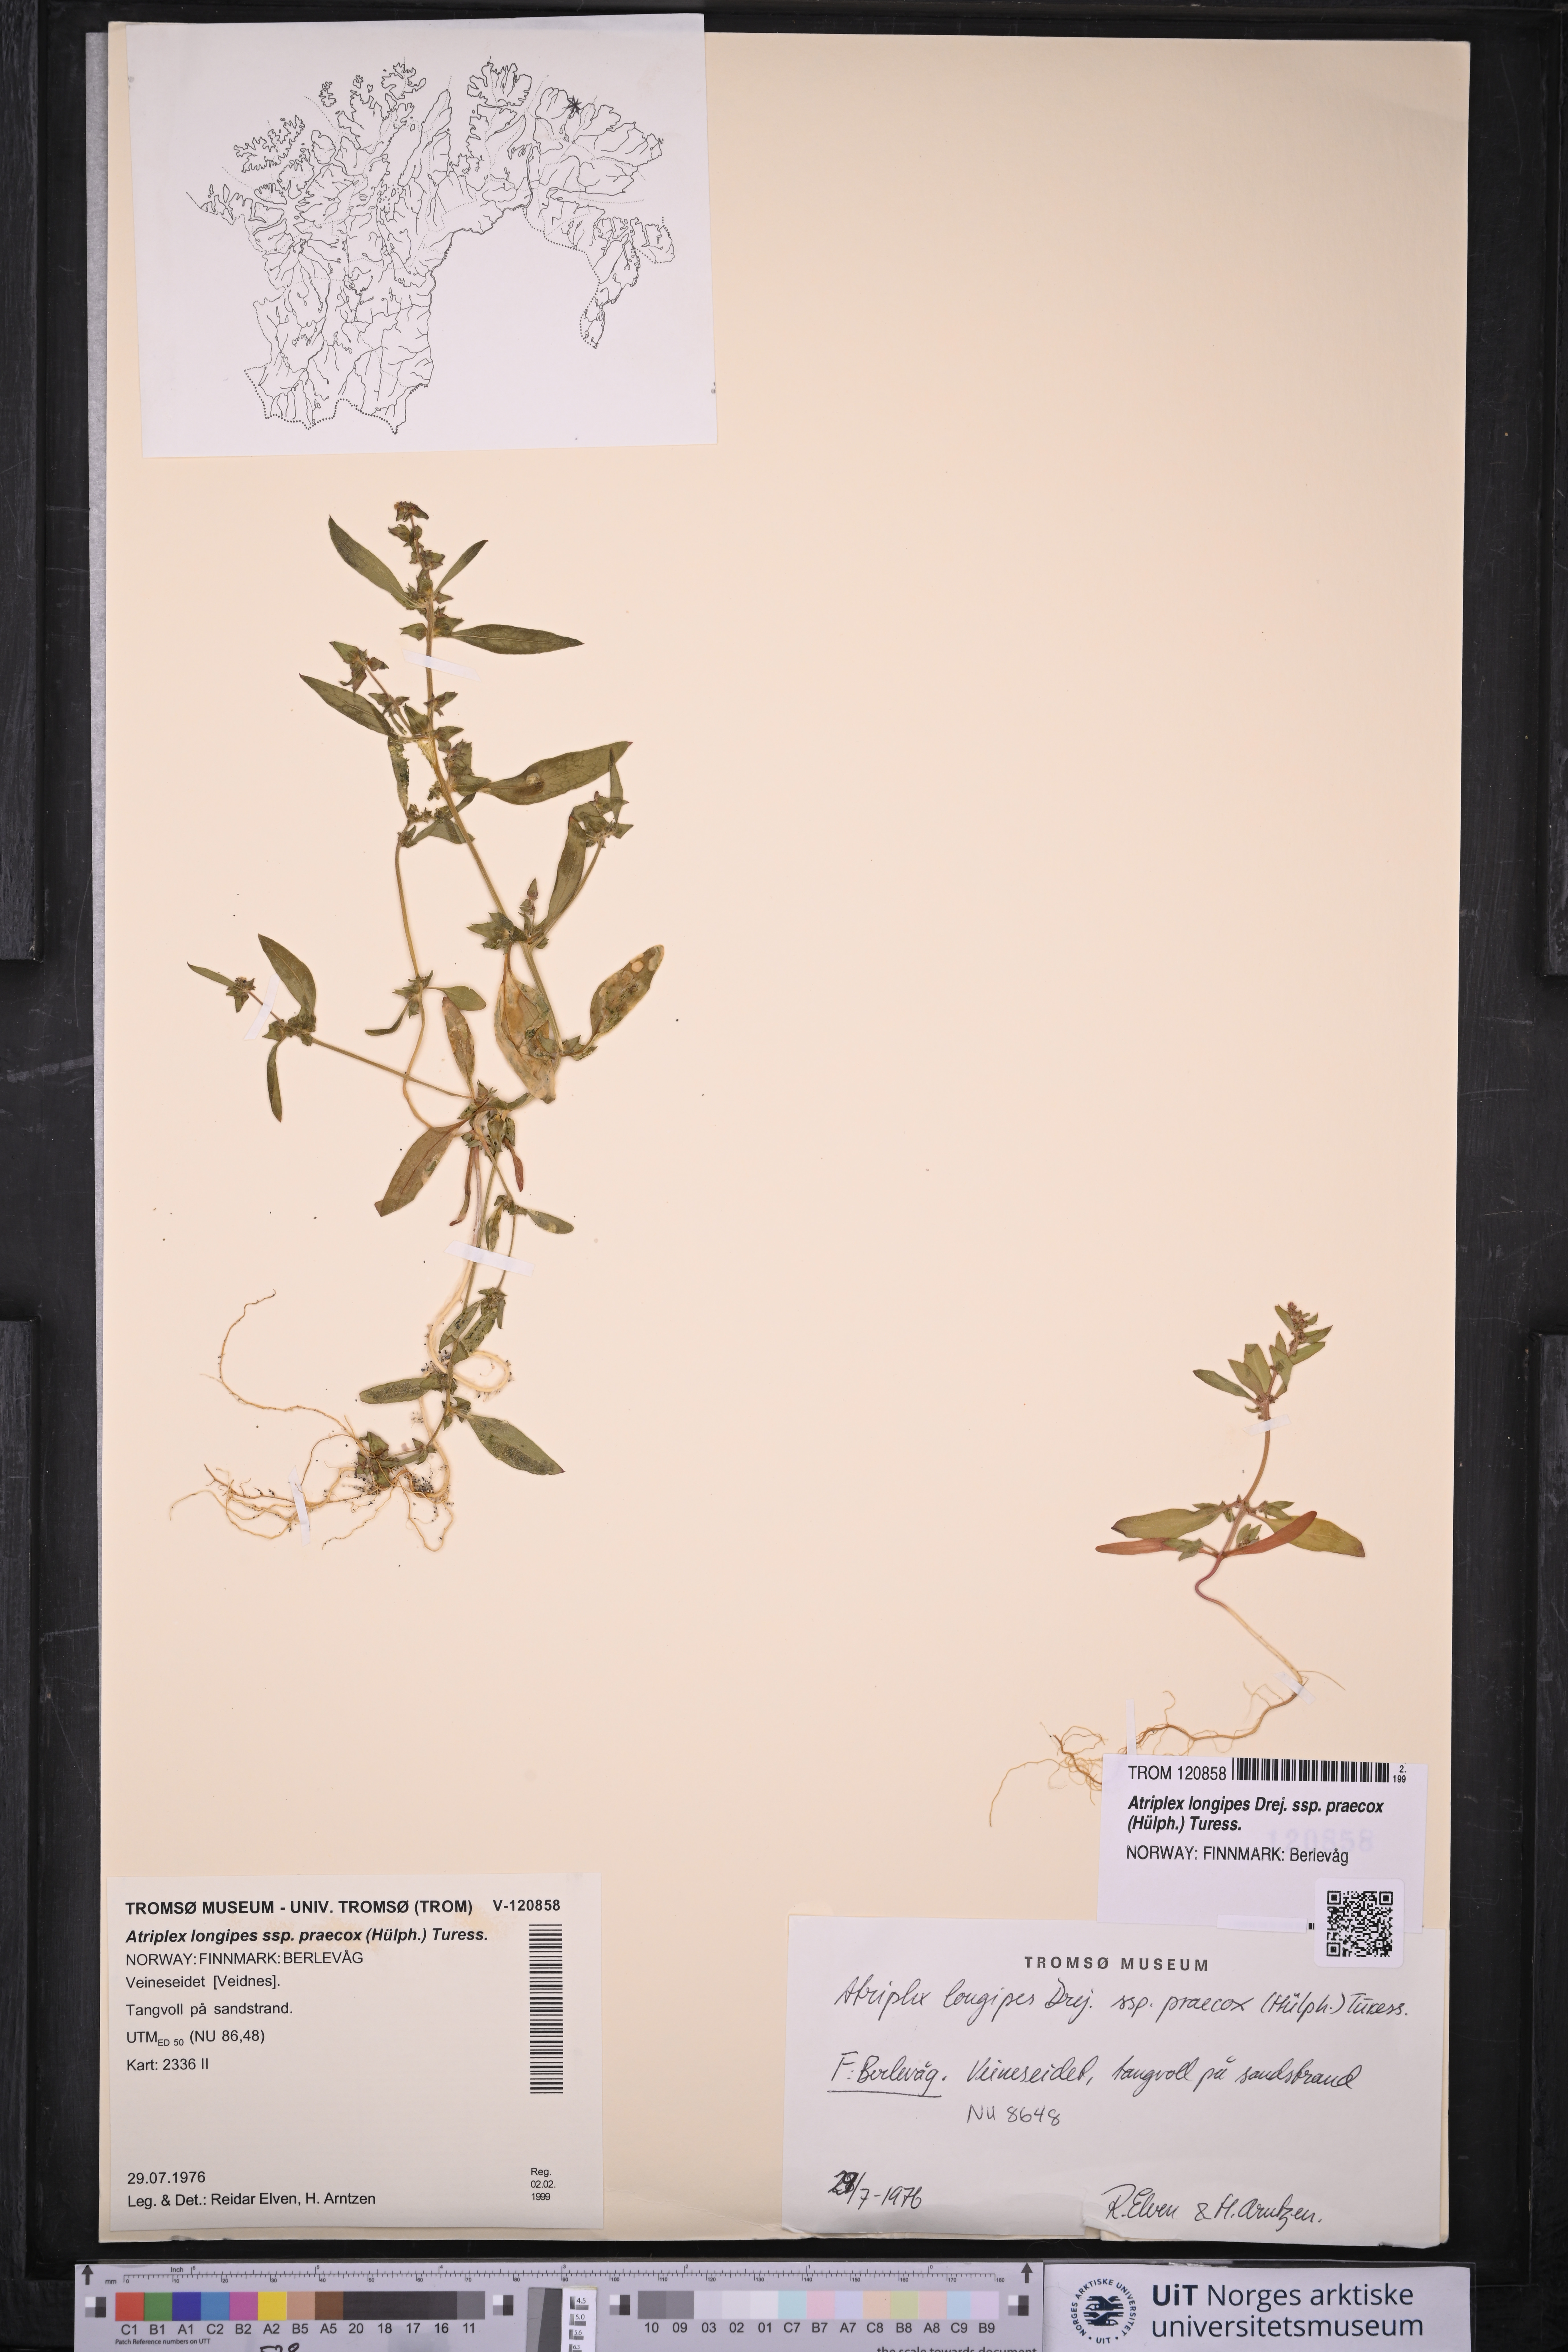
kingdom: Plantae
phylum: Tracheophyta
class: Magnoliopsida
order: Caryophyllales
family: Amaranthaceae
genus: Atriplex
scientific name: Atriplex praecox
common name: Early orache
